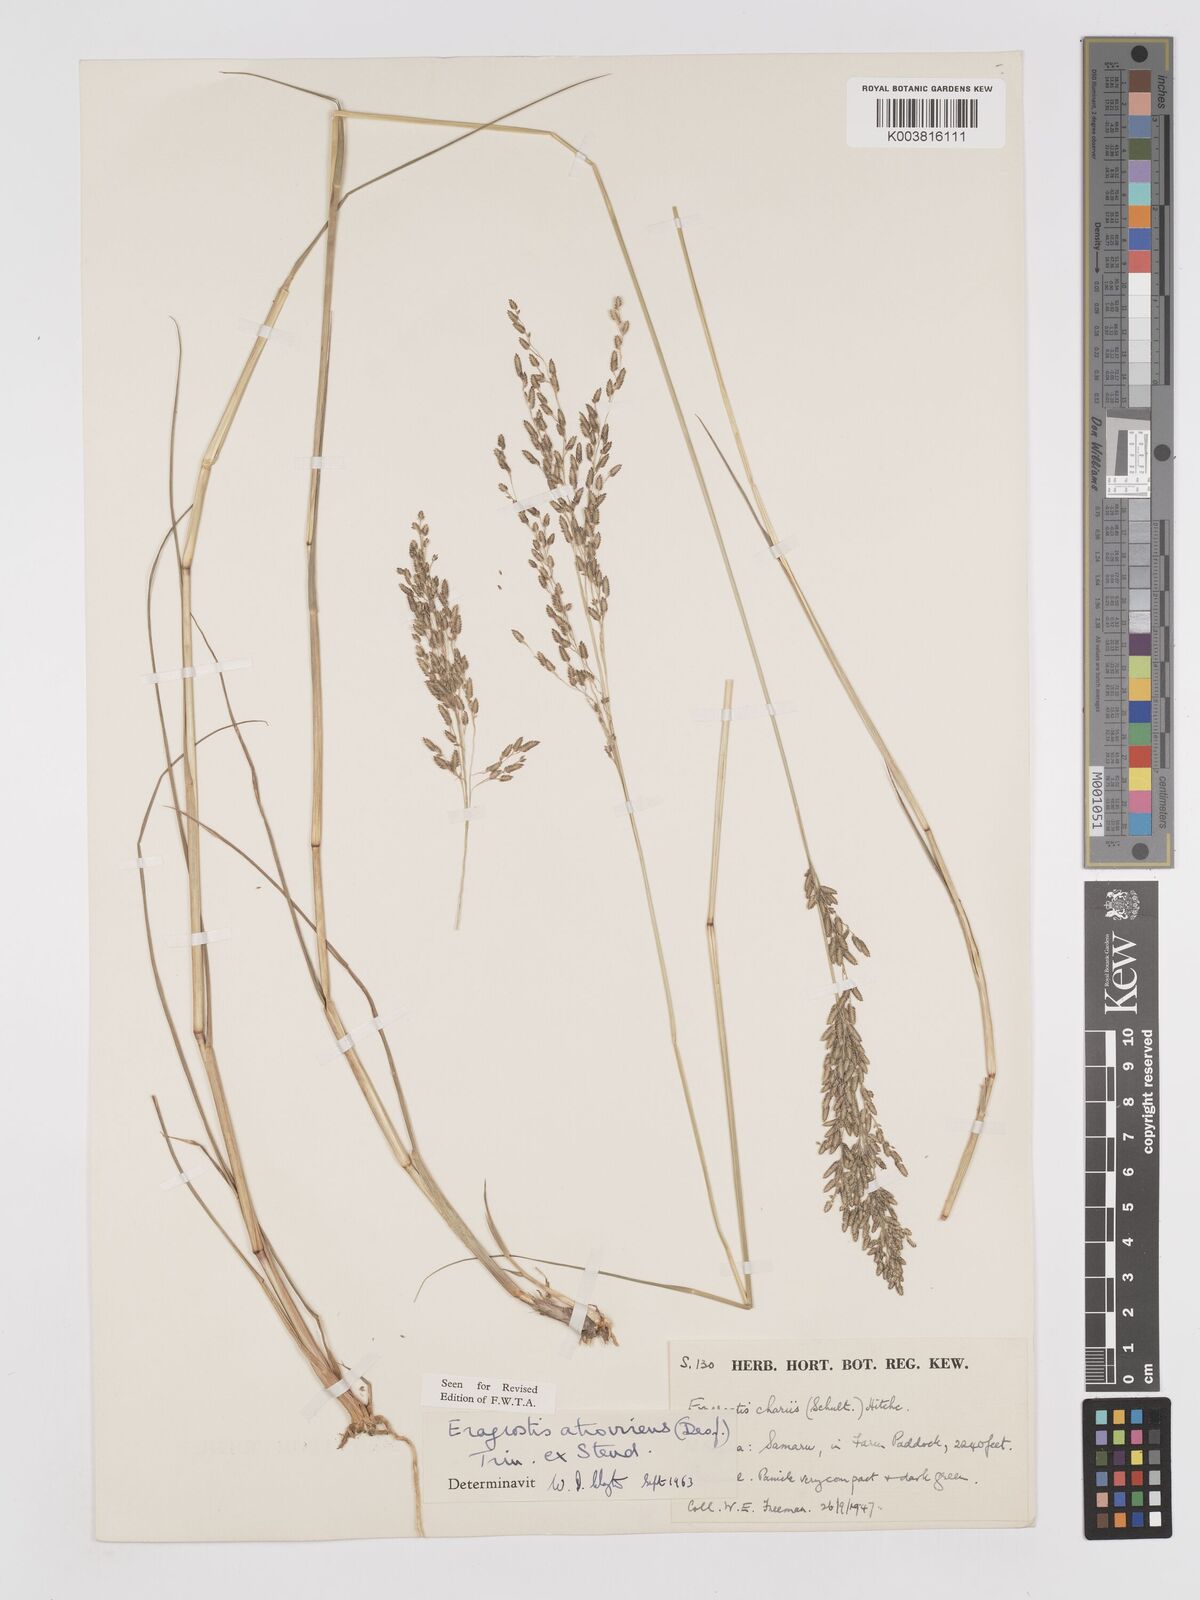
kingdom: Plantae
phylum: Tracheophyta
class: Liliopsida
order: Poales
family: Poaceae
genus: Eragrostis
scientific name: Eragrostis atrovirens
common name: Thalia lovegrass
